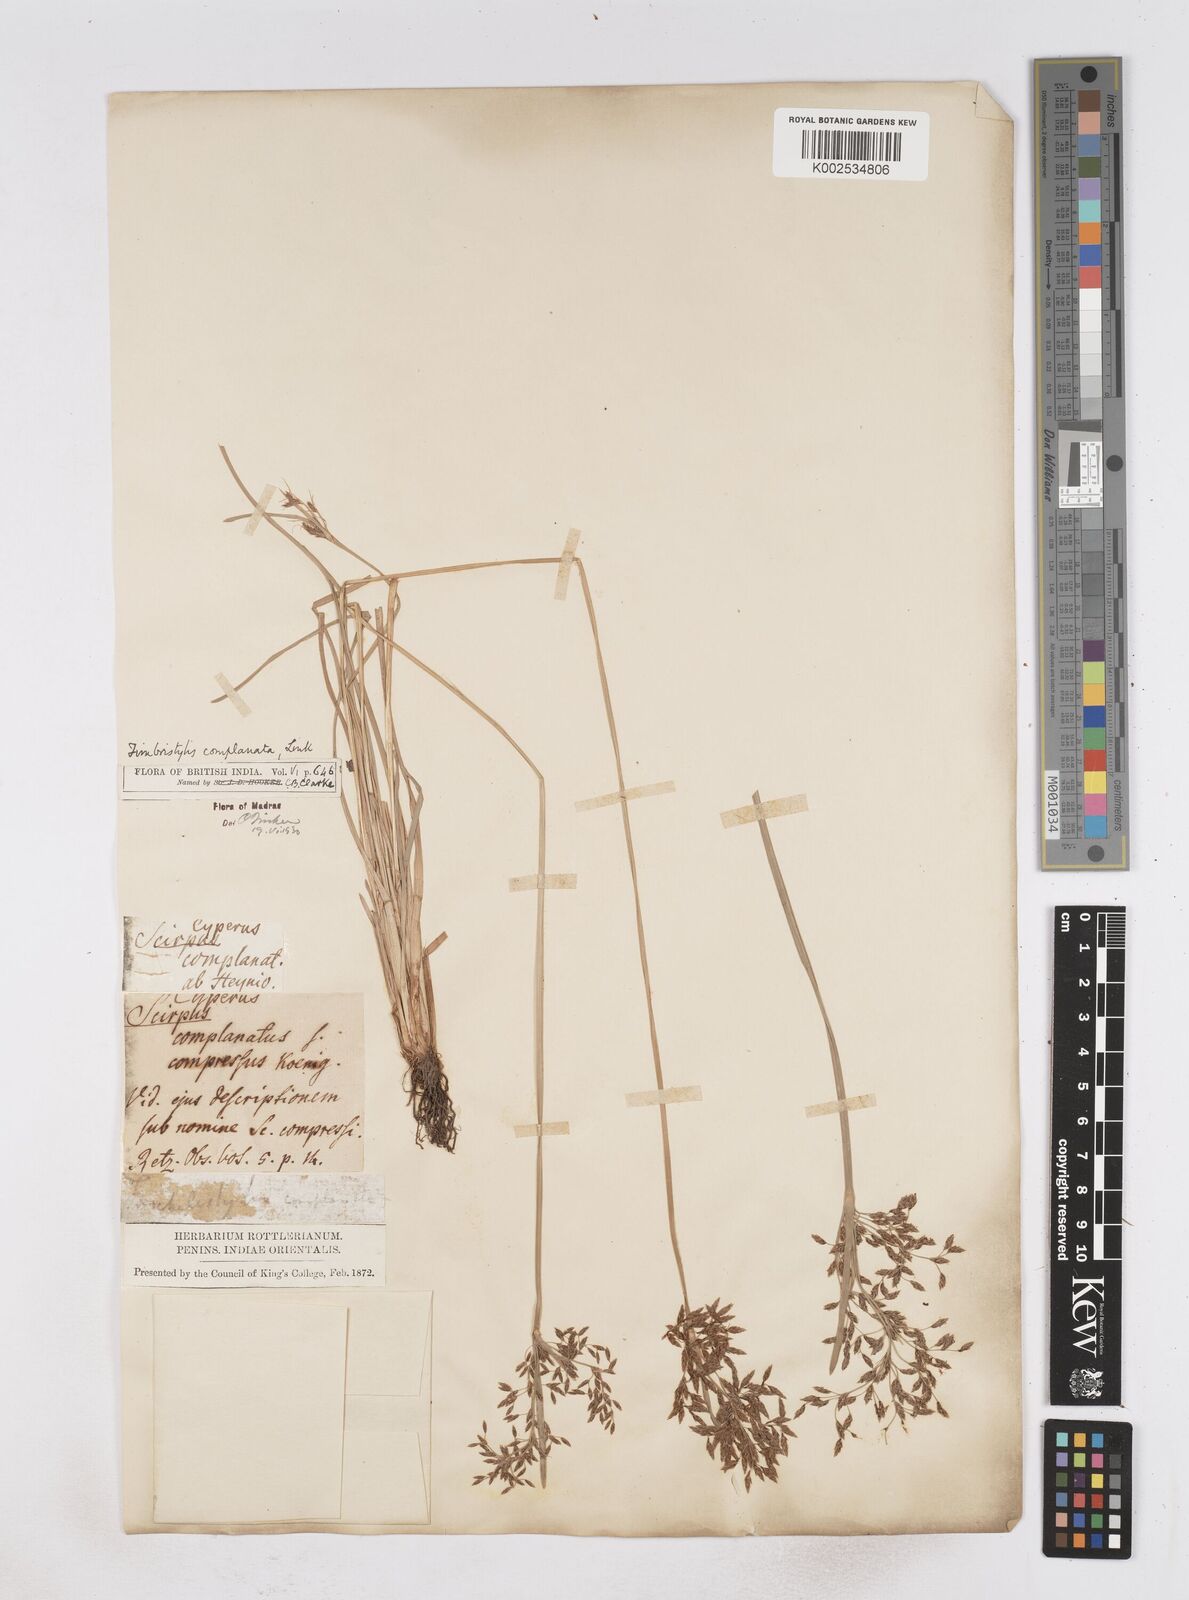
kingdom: Plantae
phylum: Tracheophyta
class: Liliopsida
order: Poales
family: Cyperaceae
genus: Fimbristylis
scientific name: Fimbristylis complanata
